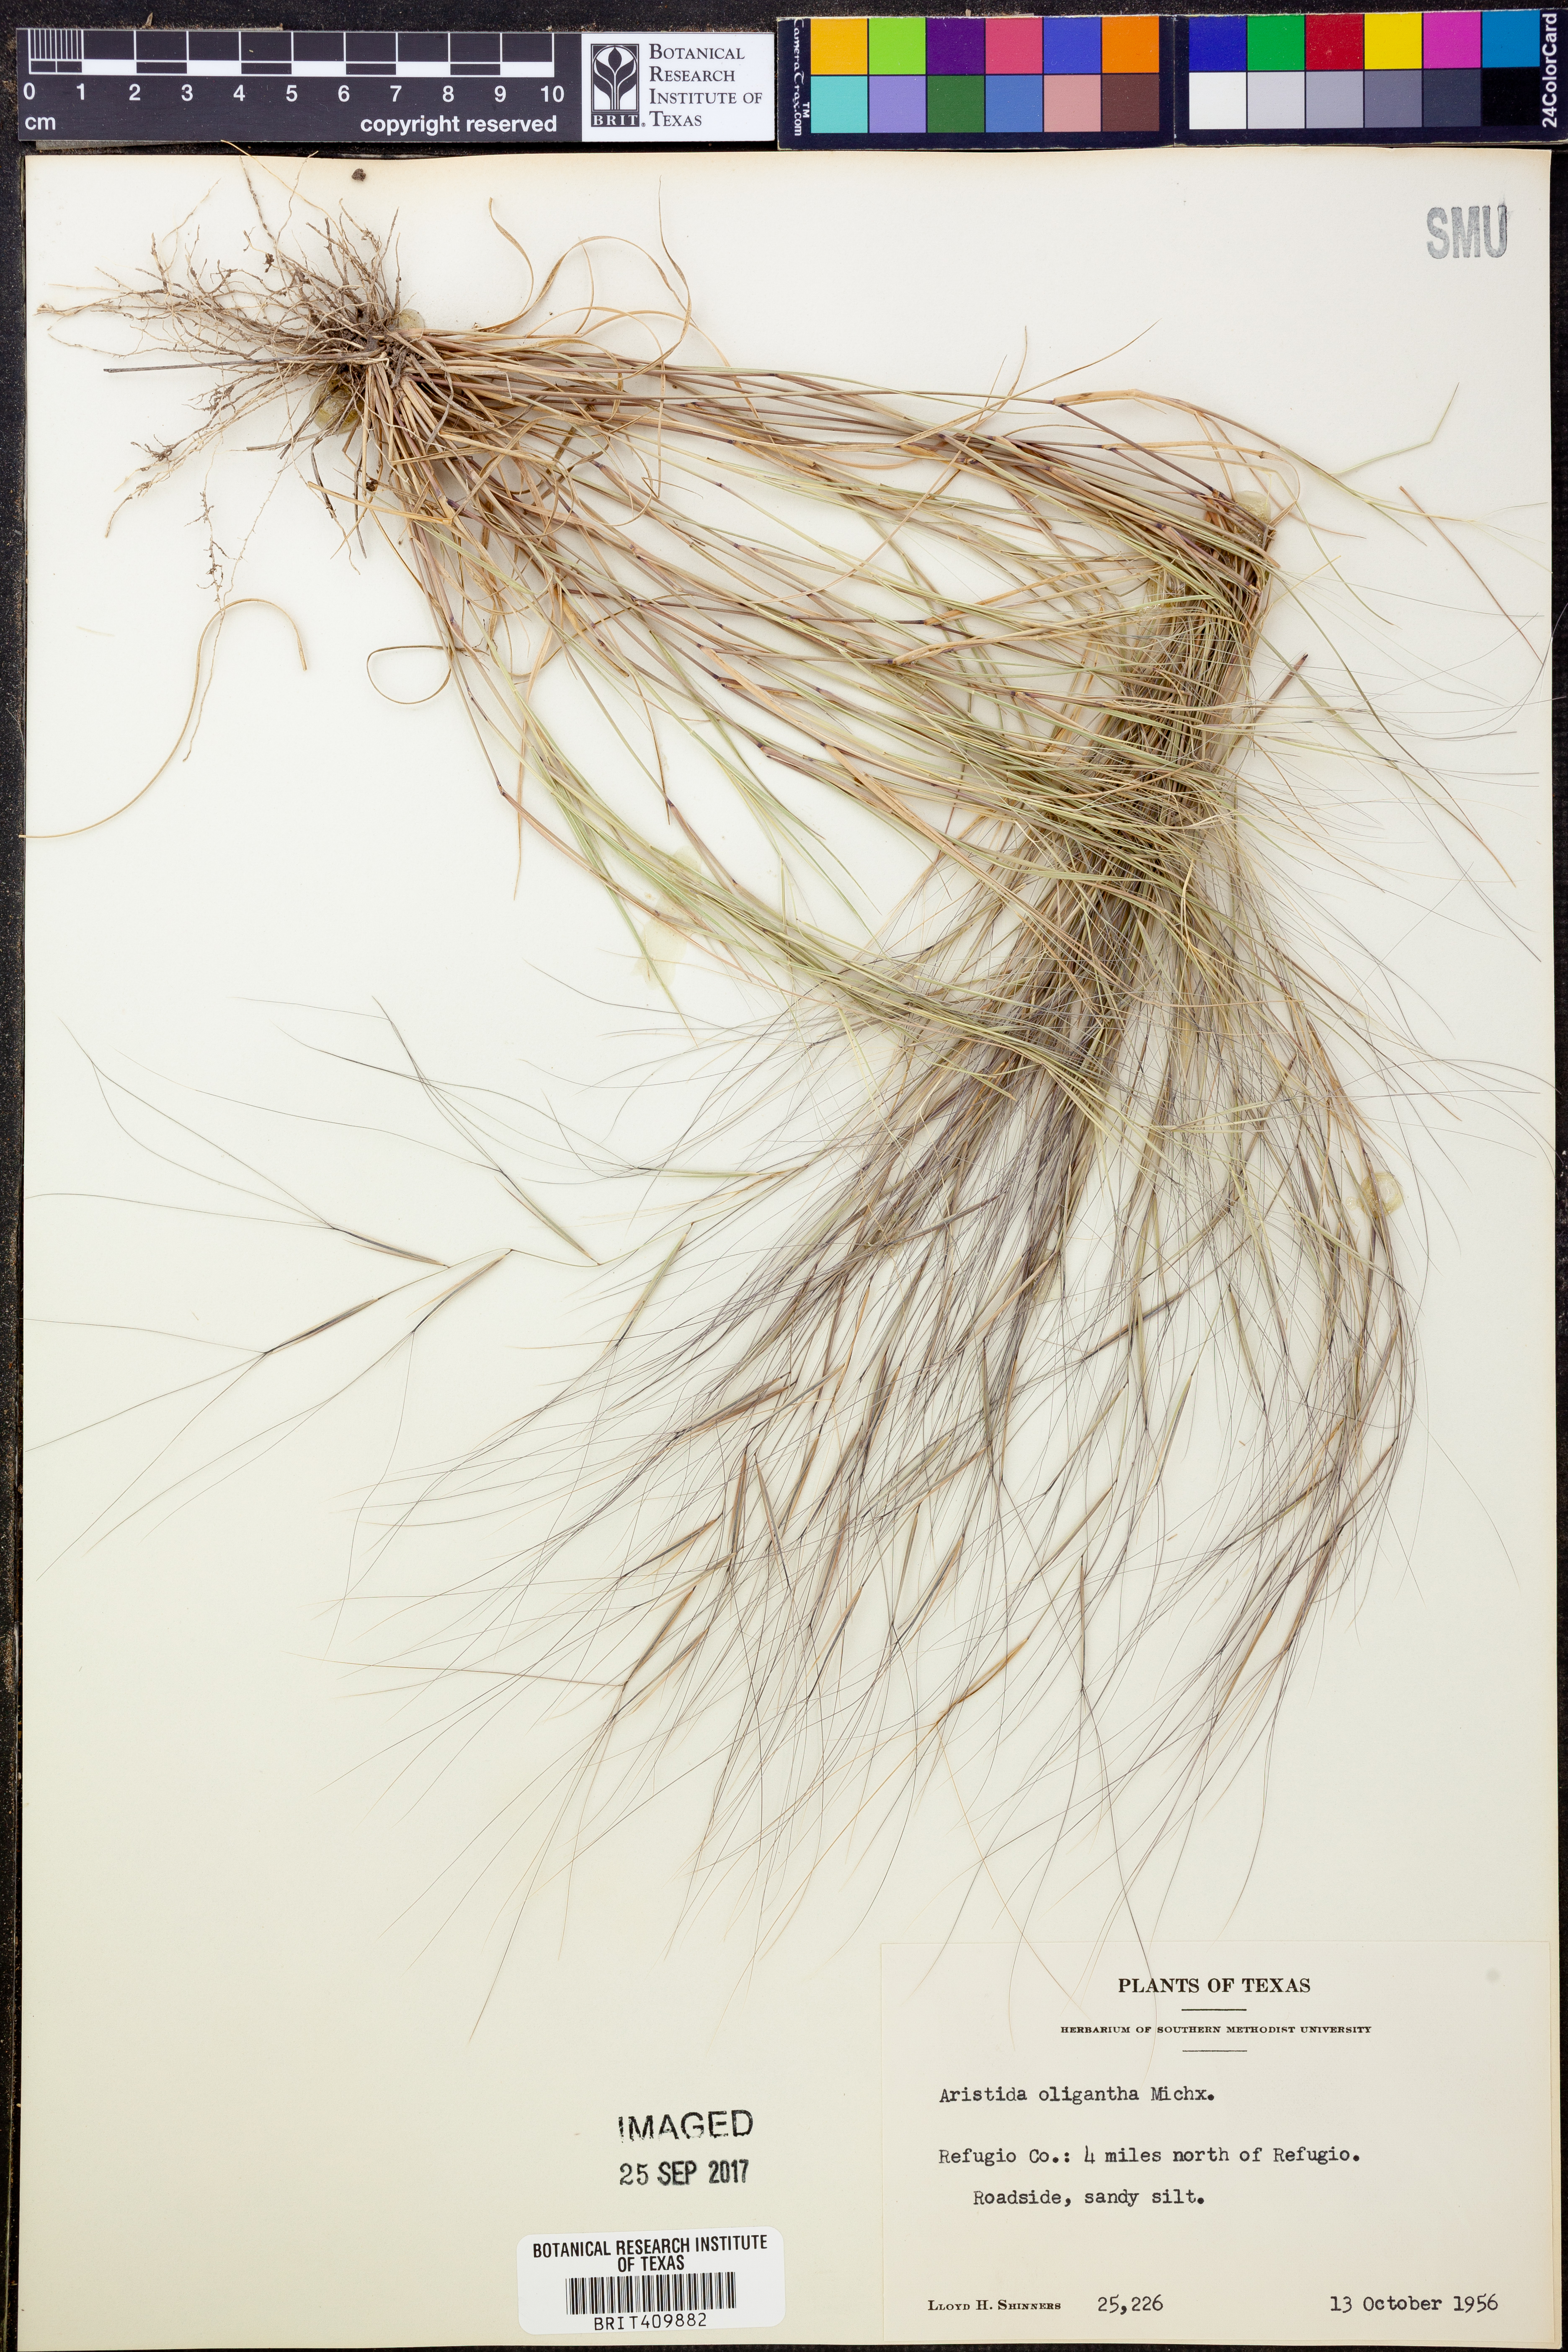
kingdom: Plantae
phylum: Tracheophyta
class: Liliopsida
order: Poales
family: Poaceae
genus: Aristida
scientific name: Aristida oligantha
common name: Few-flowered aristida
